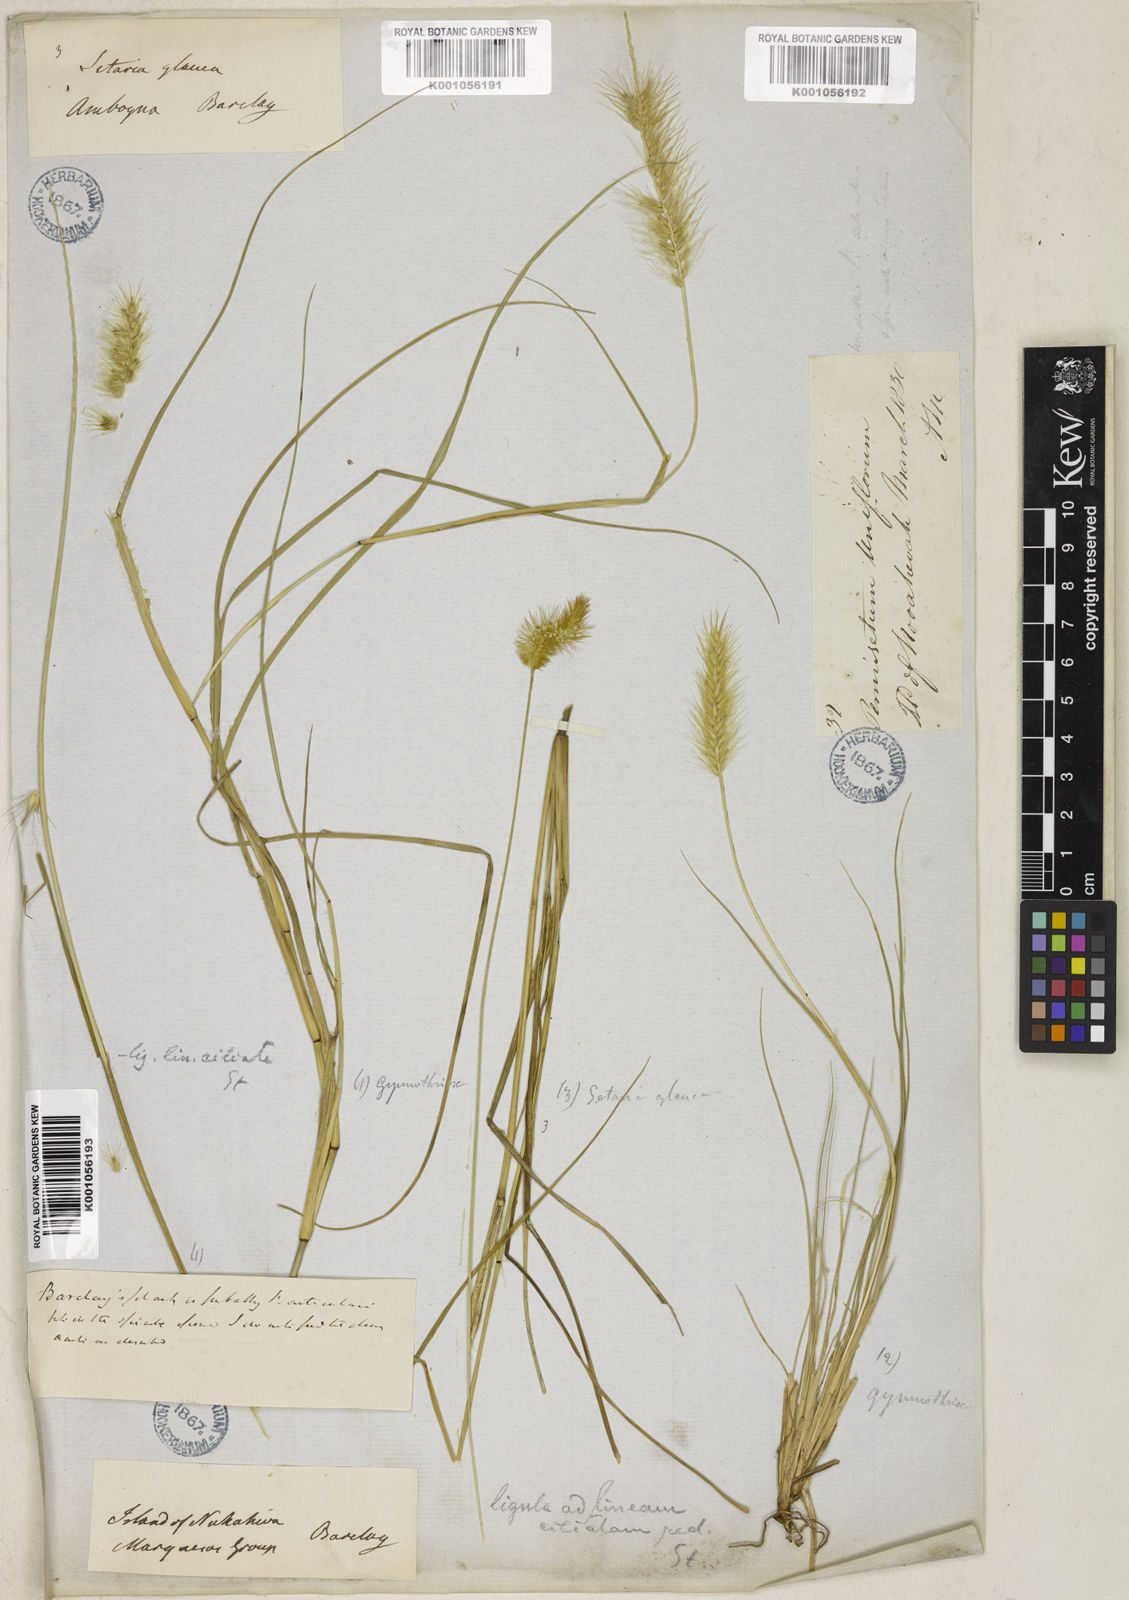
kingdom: Plantae
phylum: Tracheophyta
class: Liliopsida
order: Poales
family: Poaceae
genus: Cenchrus
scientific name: Cenchrus articularis
